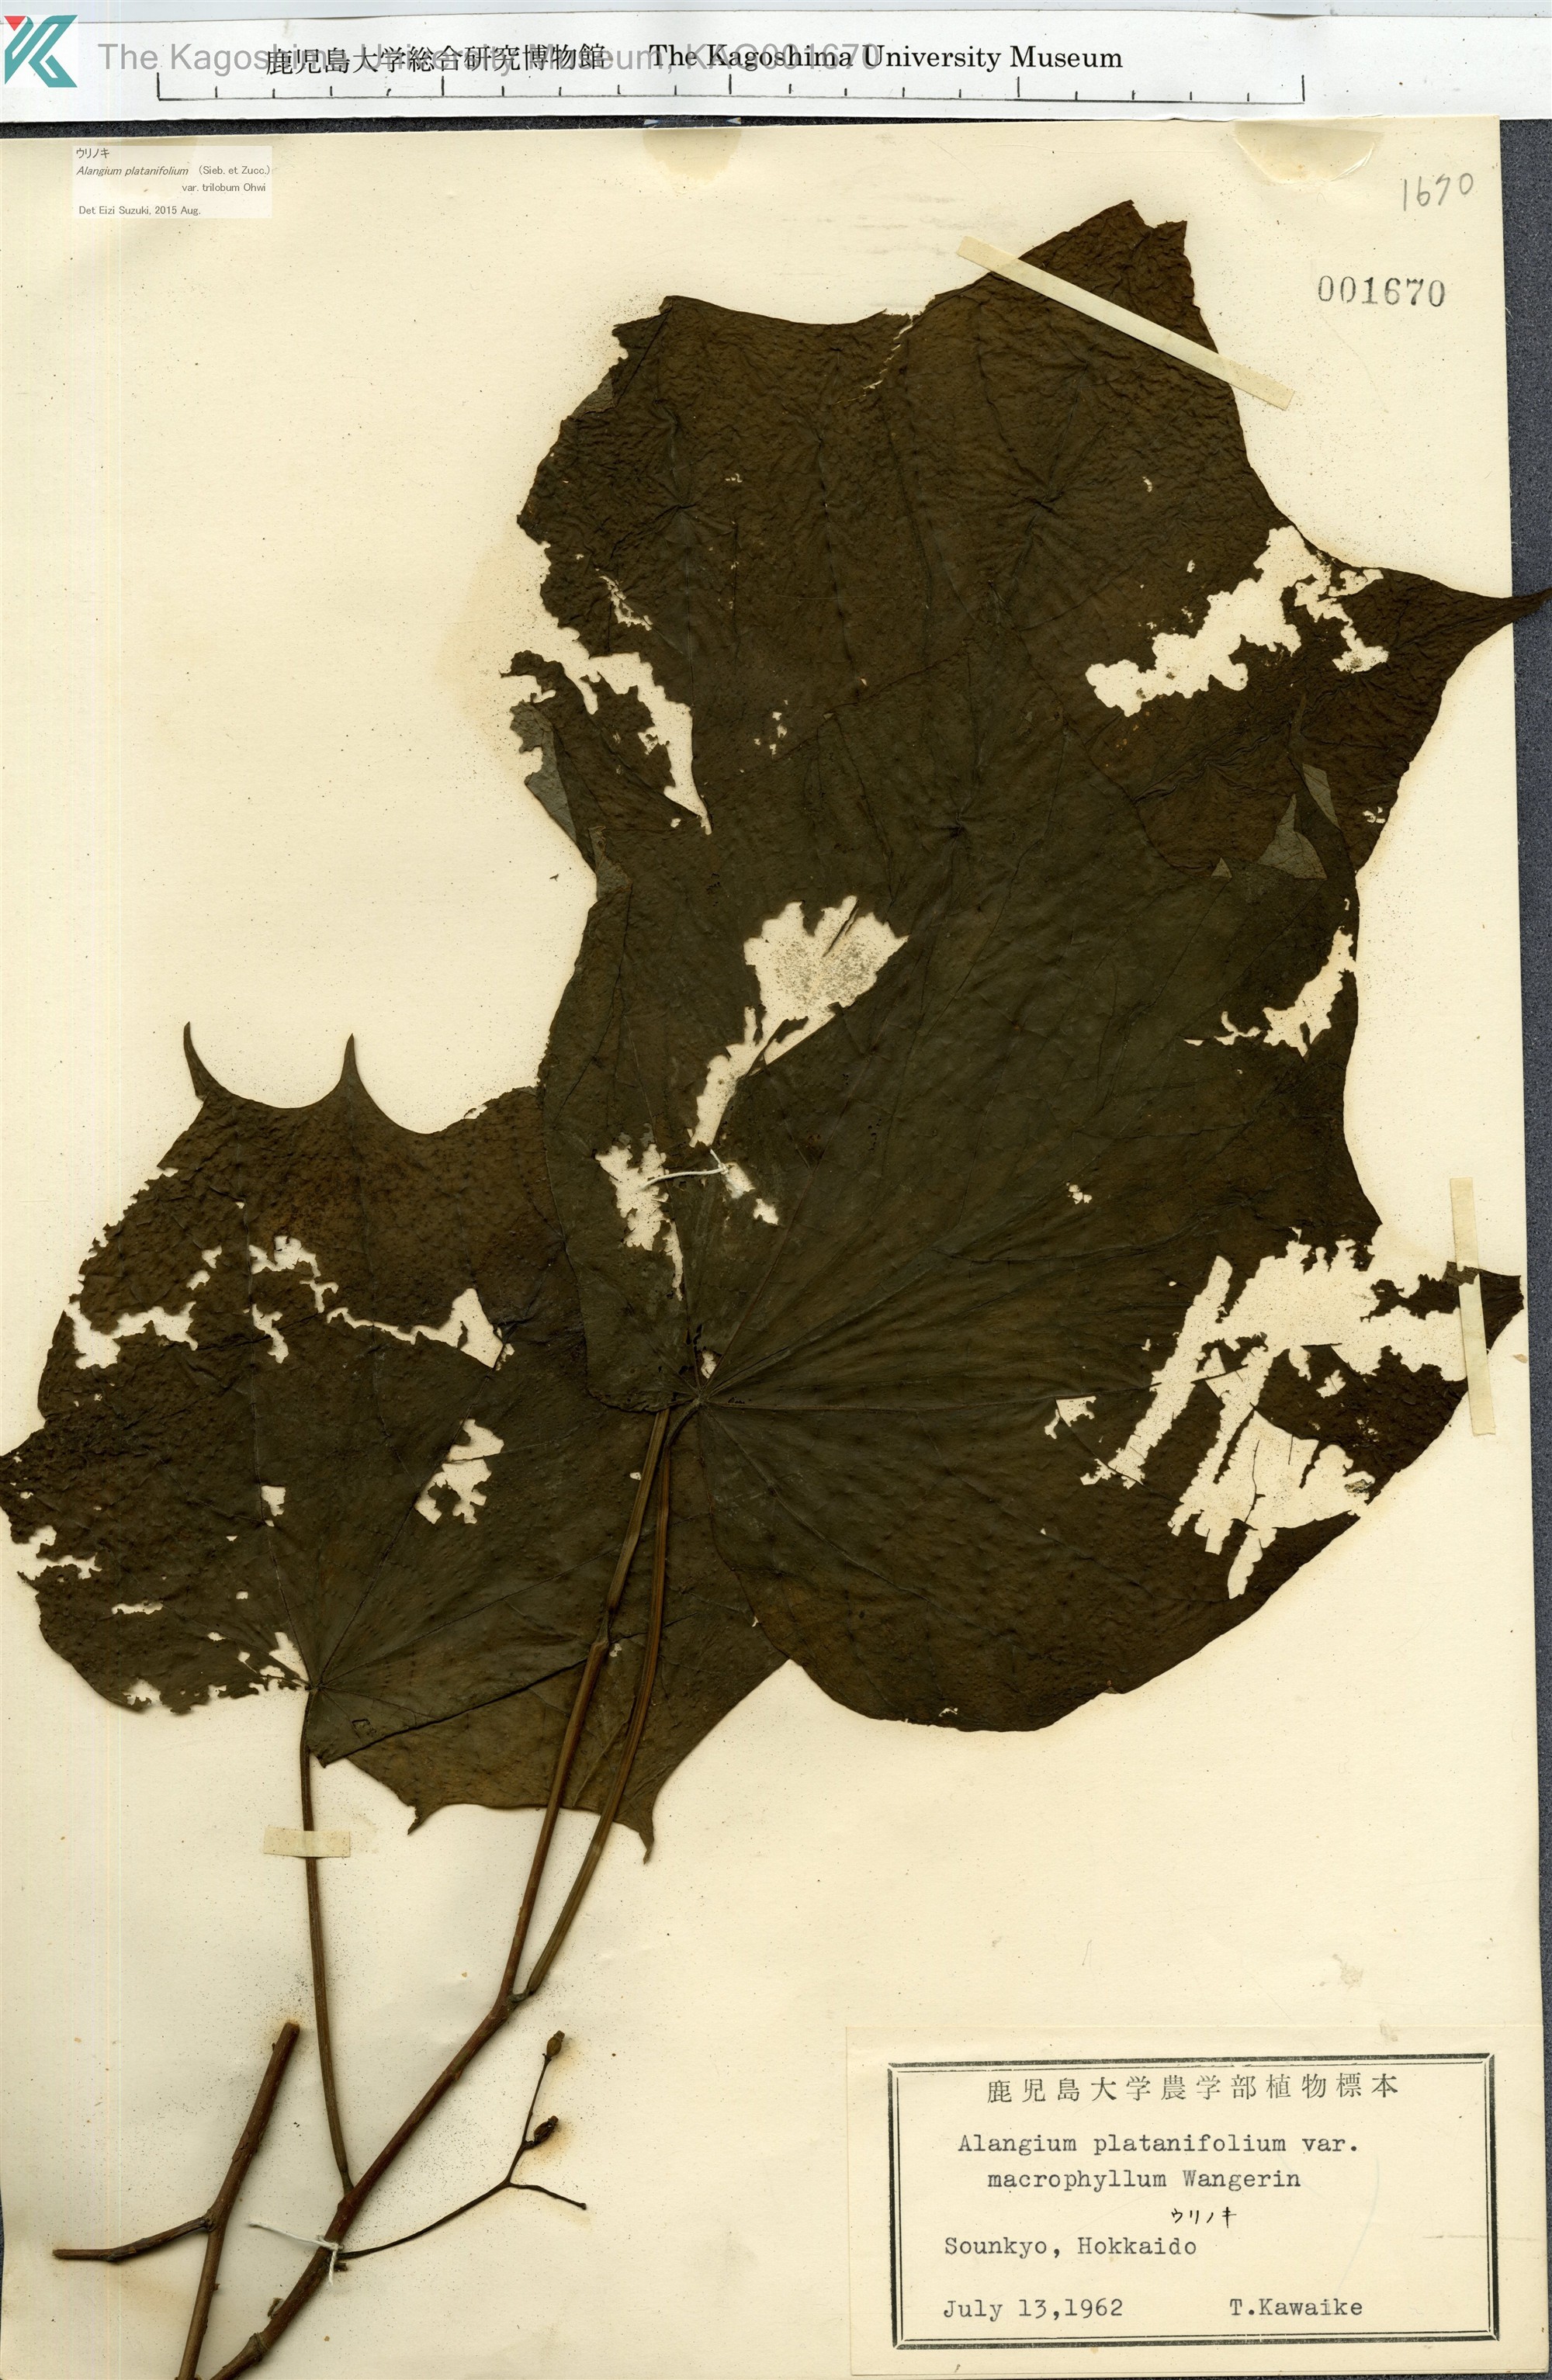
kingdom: Plantae
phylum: Tracheophyta
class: Magnoliopsida
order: Cornales
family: Cornaceae
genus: Alangium
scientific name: Alangium platanifolium
